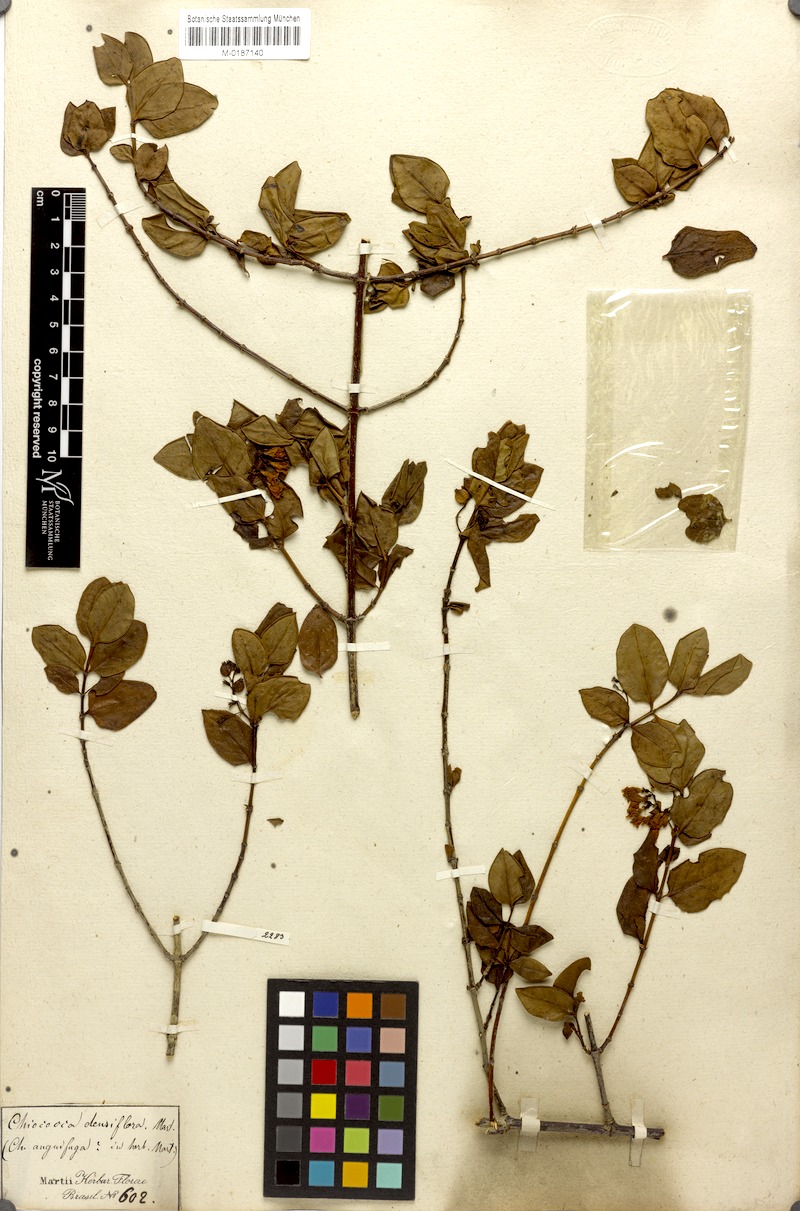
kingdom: Plantae
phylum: Tracheophyta
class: Magnoliopsida
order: Gentianales
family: Rubiaceae
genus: Chiococca
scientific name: Chiococca alba
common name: Snowberry
